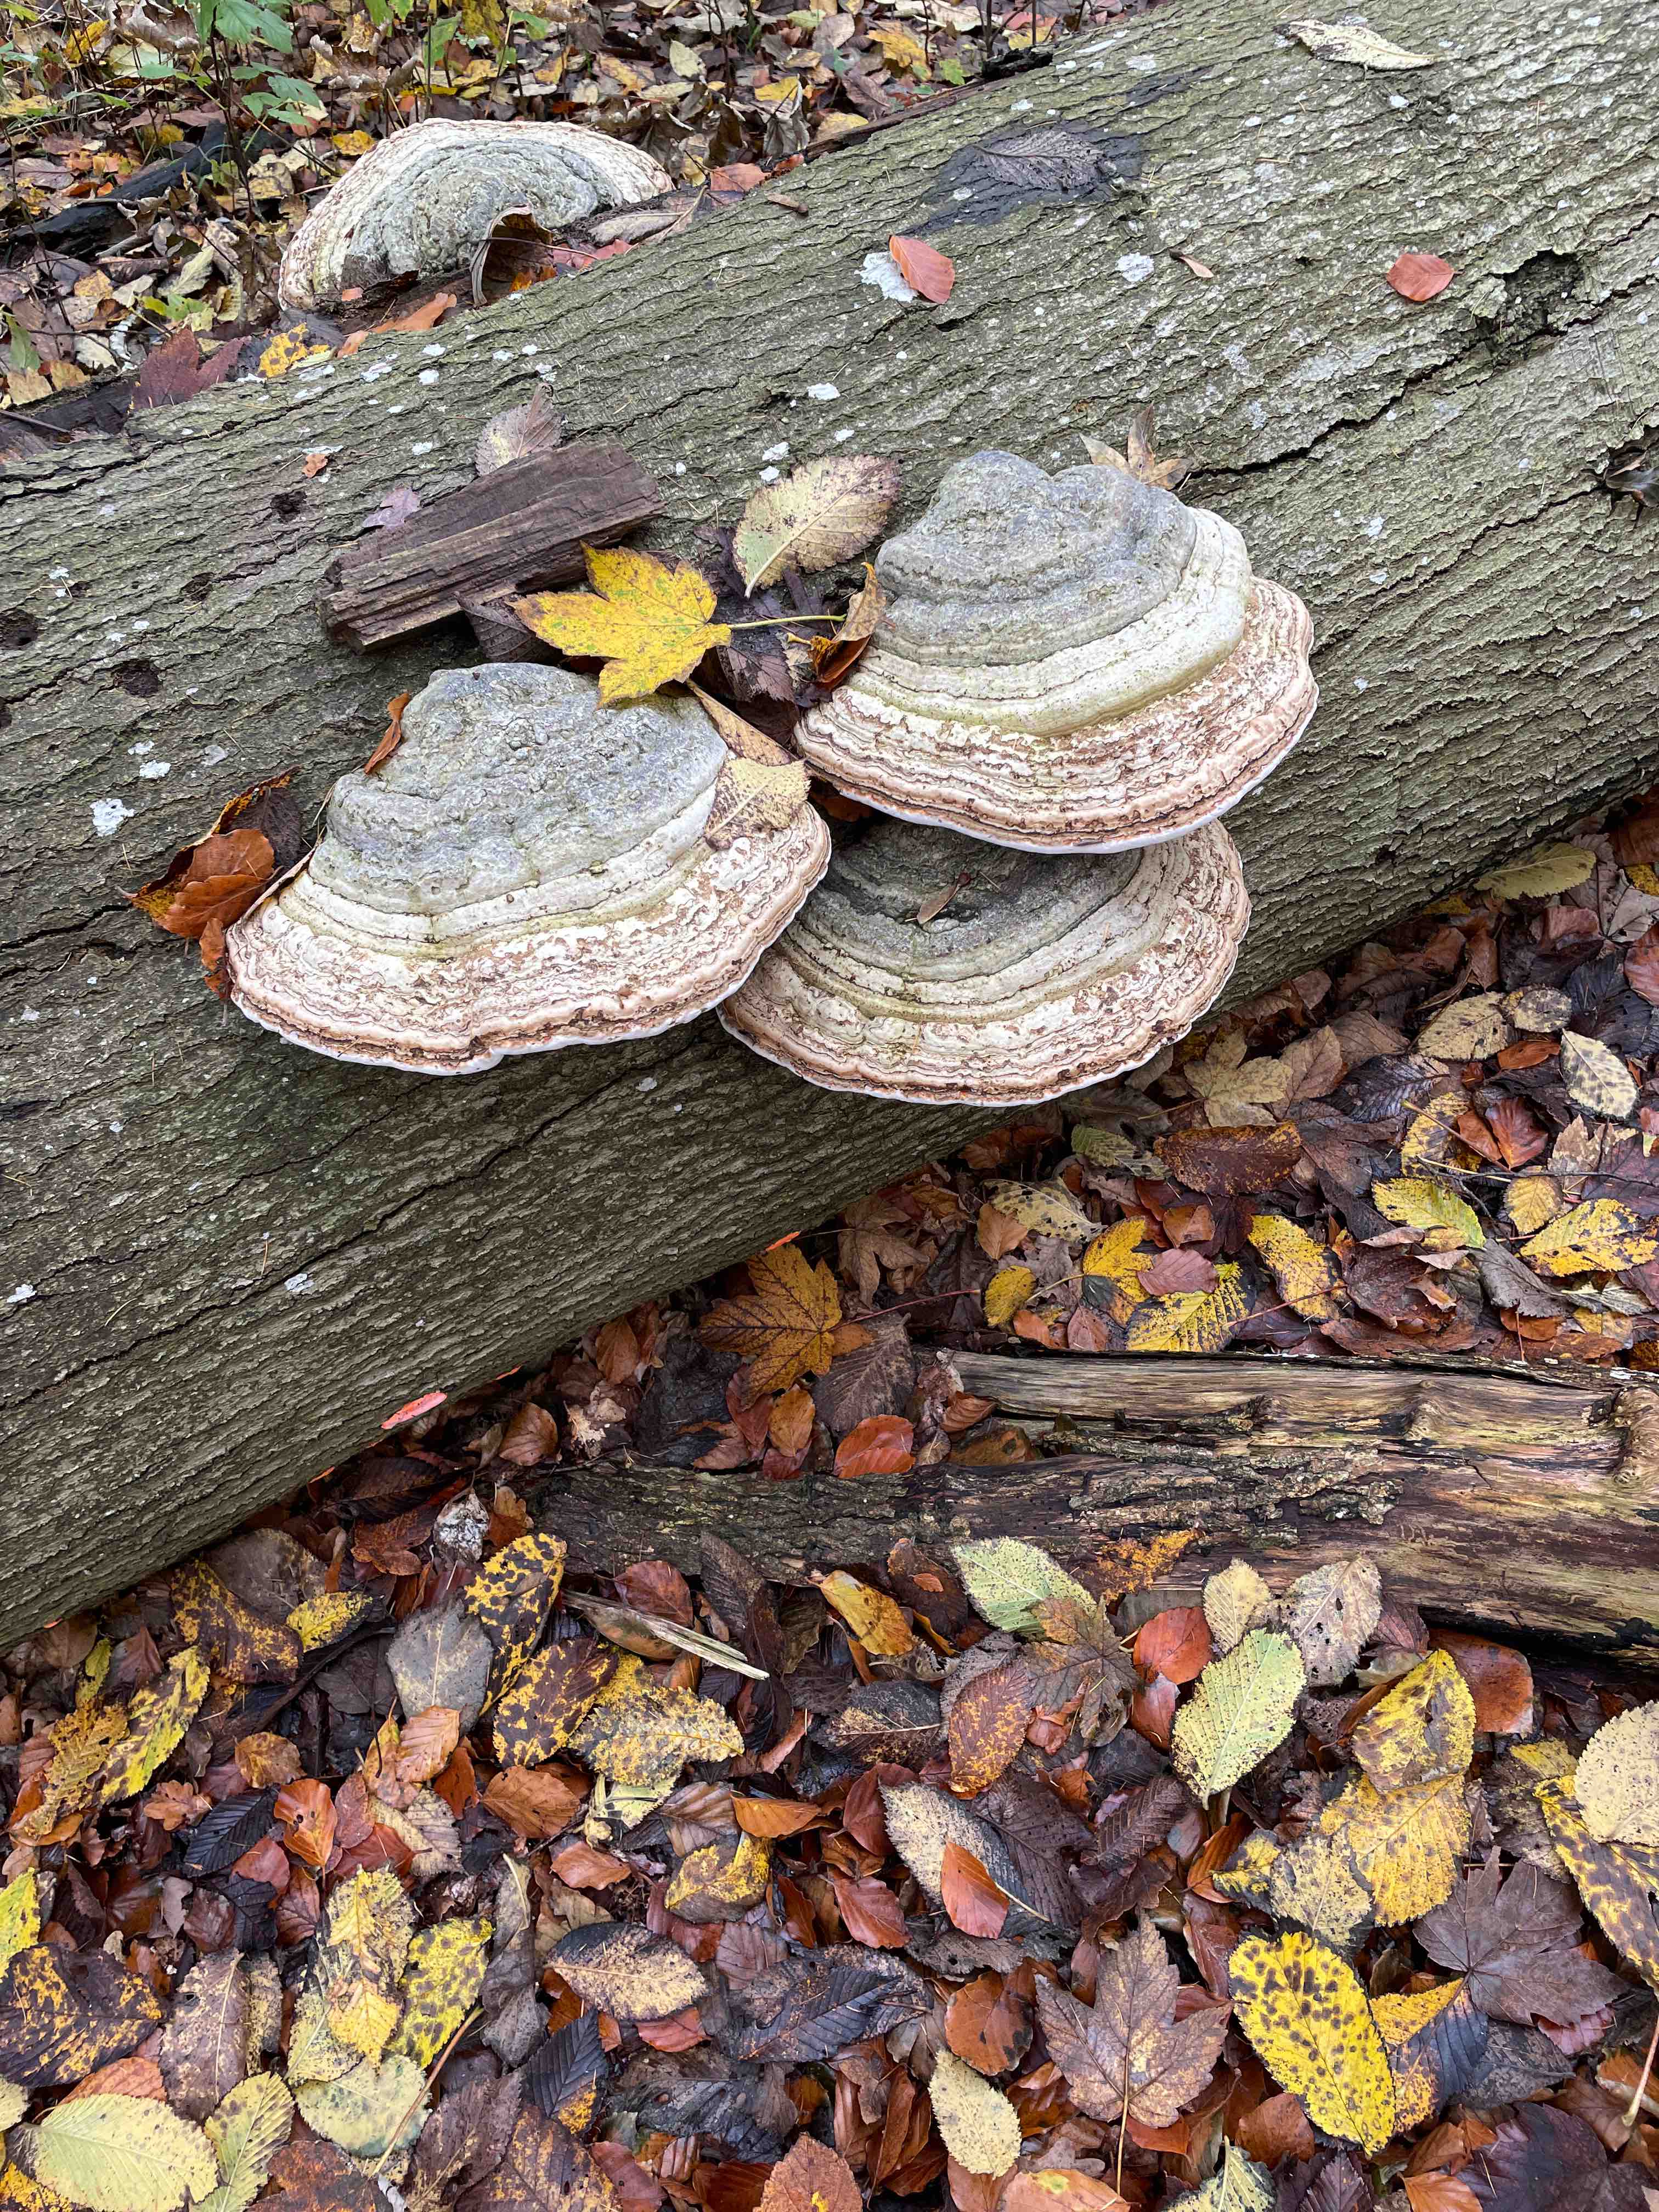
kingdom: Fungi
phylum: Basidiomycota
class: Agaricomycetes
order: Polyporales
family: Polyporaceae
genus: Fomes
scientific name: Fomes fomentarius
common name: tøndersvamp
